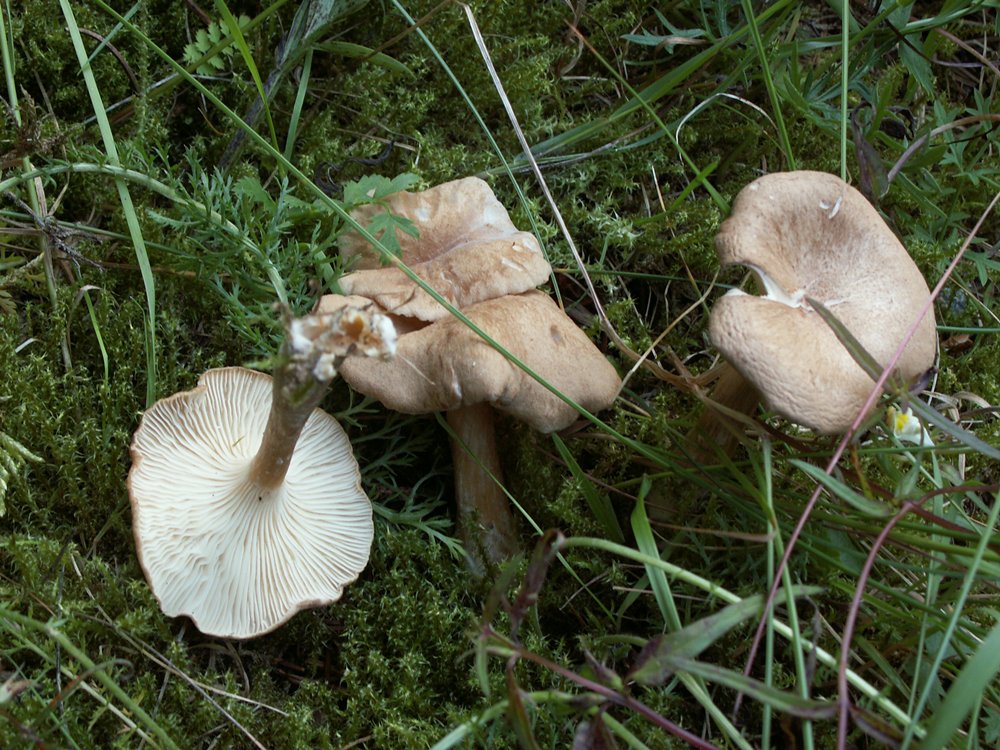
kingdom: Fungi
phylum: Basidiomycota
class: Agaricomycetes
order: Agaricales
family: Tricholomataceae
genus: Infundibulicybe
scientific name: Infundibulicybe squamulosa
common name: småskællet tragthat
